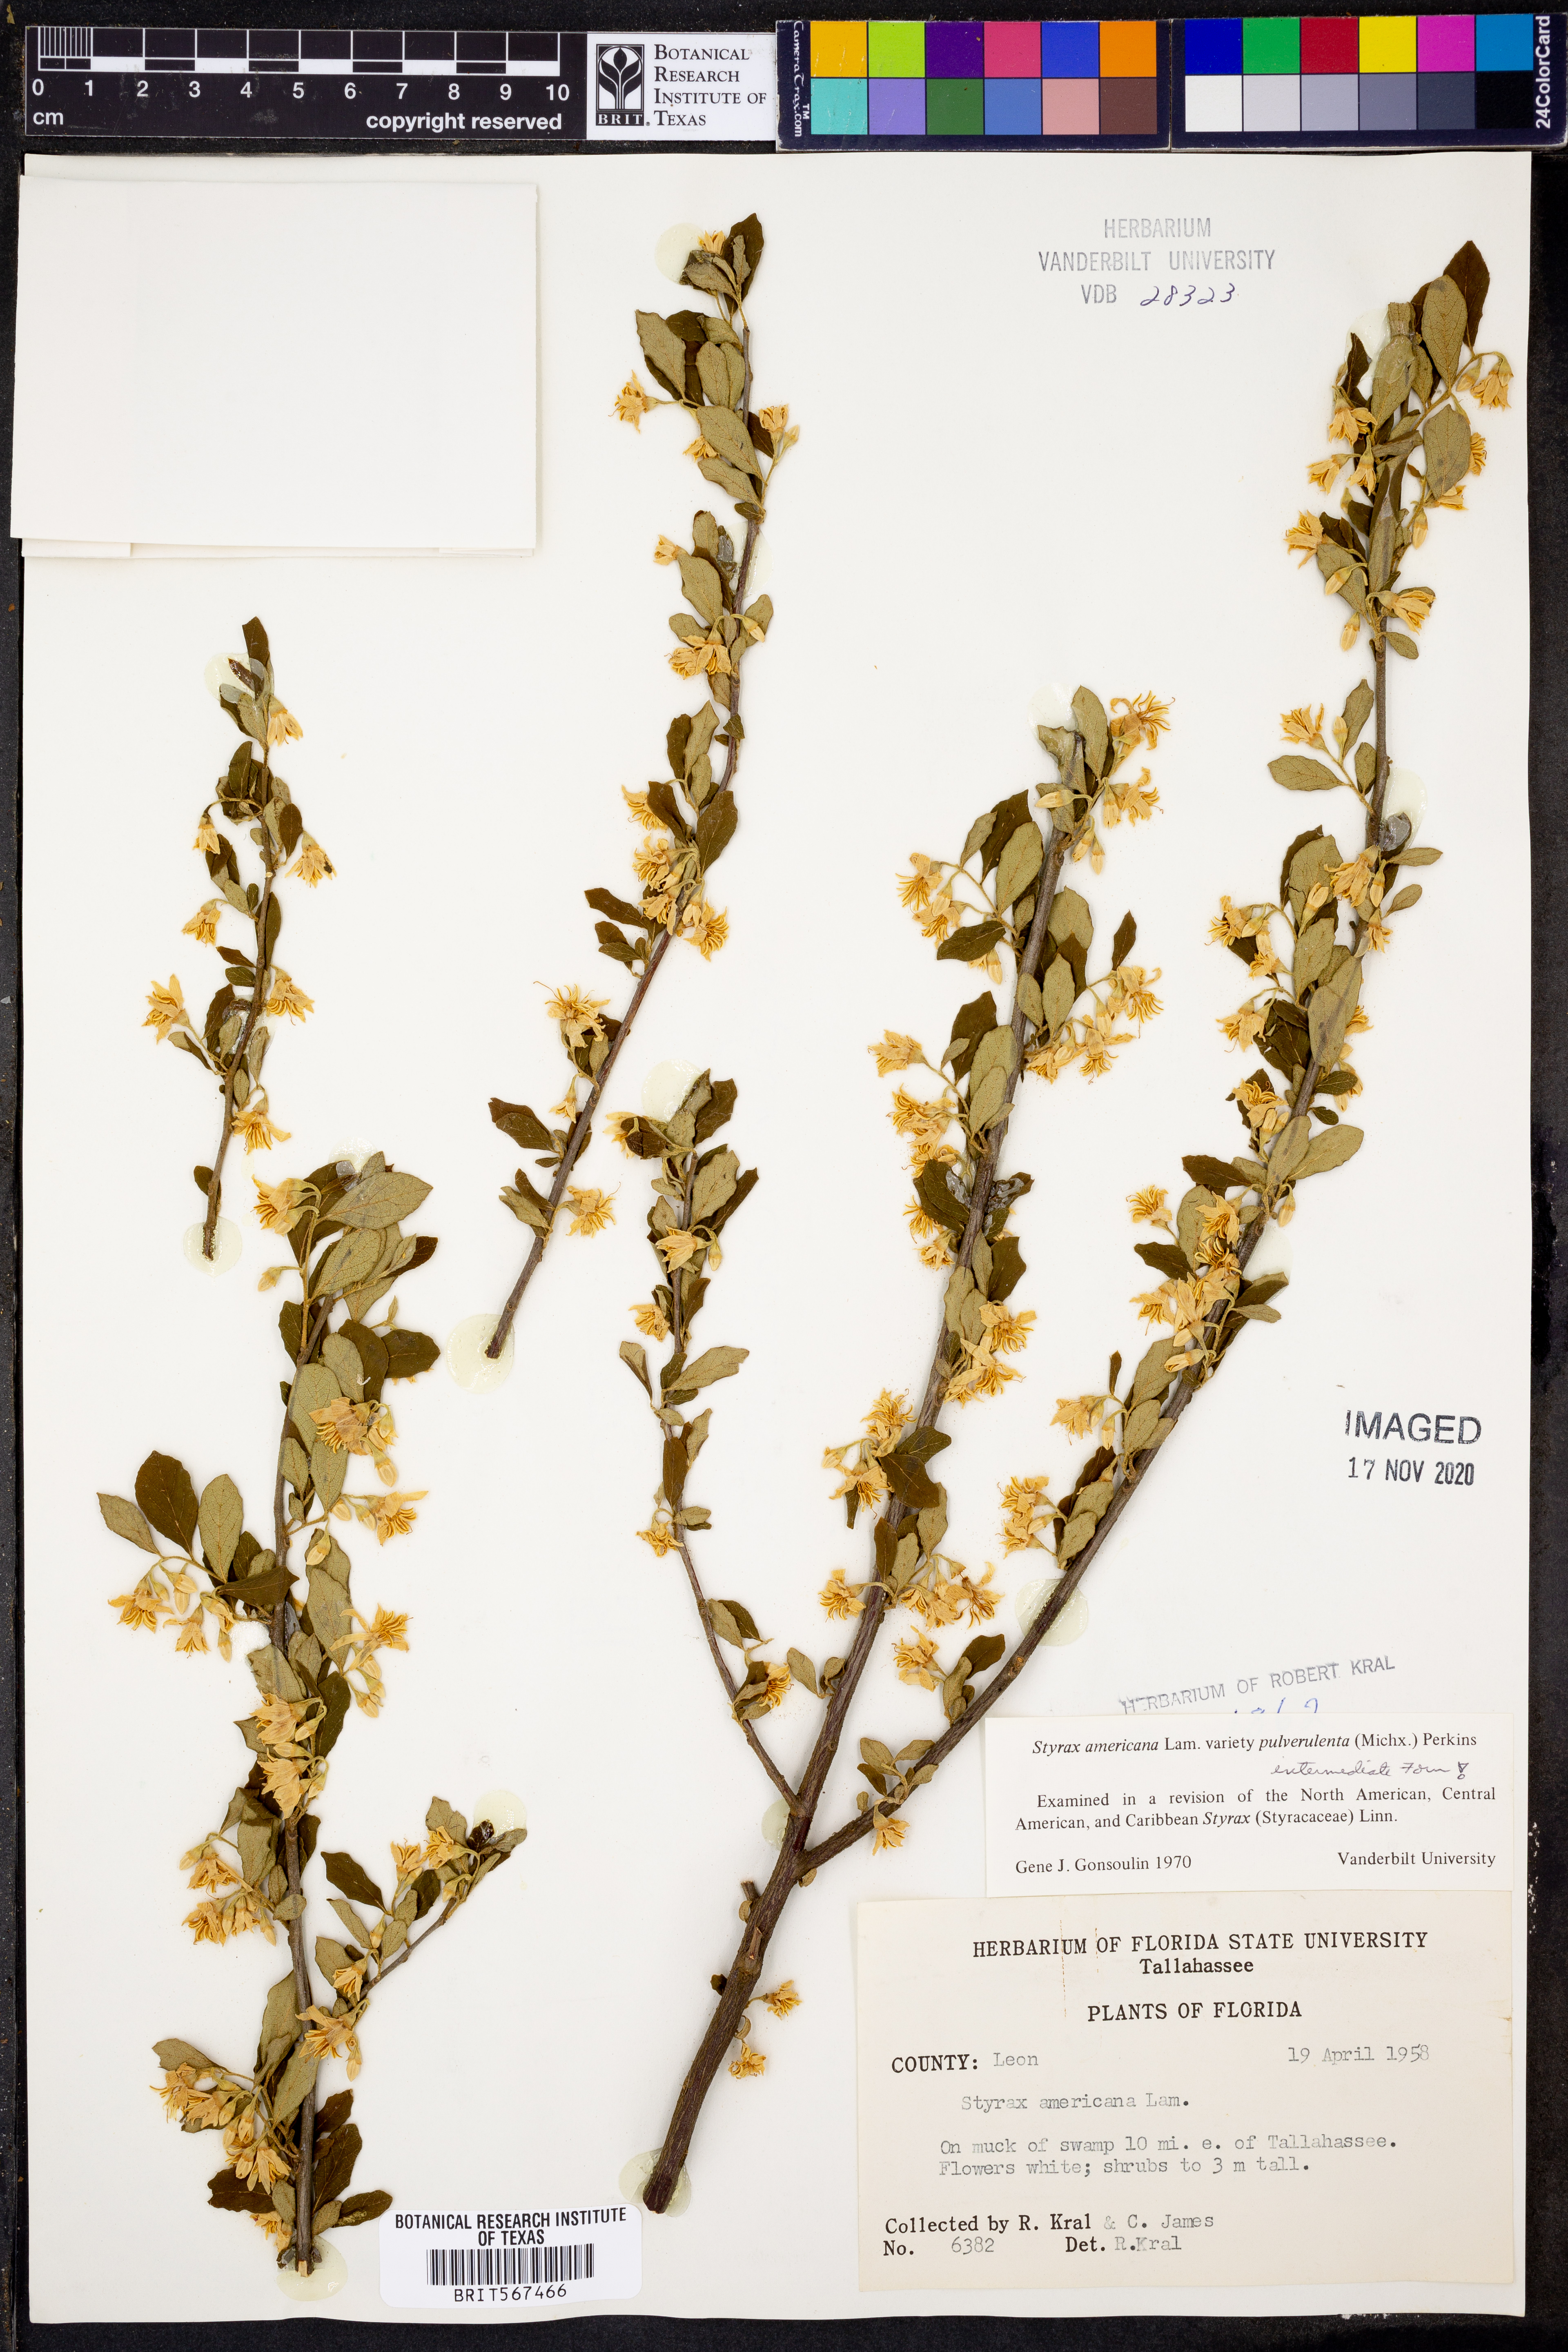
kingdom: Plantae
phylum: Tracheophyta
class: Magnoliopsida
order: Ericales
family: Styracaceae
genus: Styrax
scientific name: Styrax americanus
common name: American snowbell
